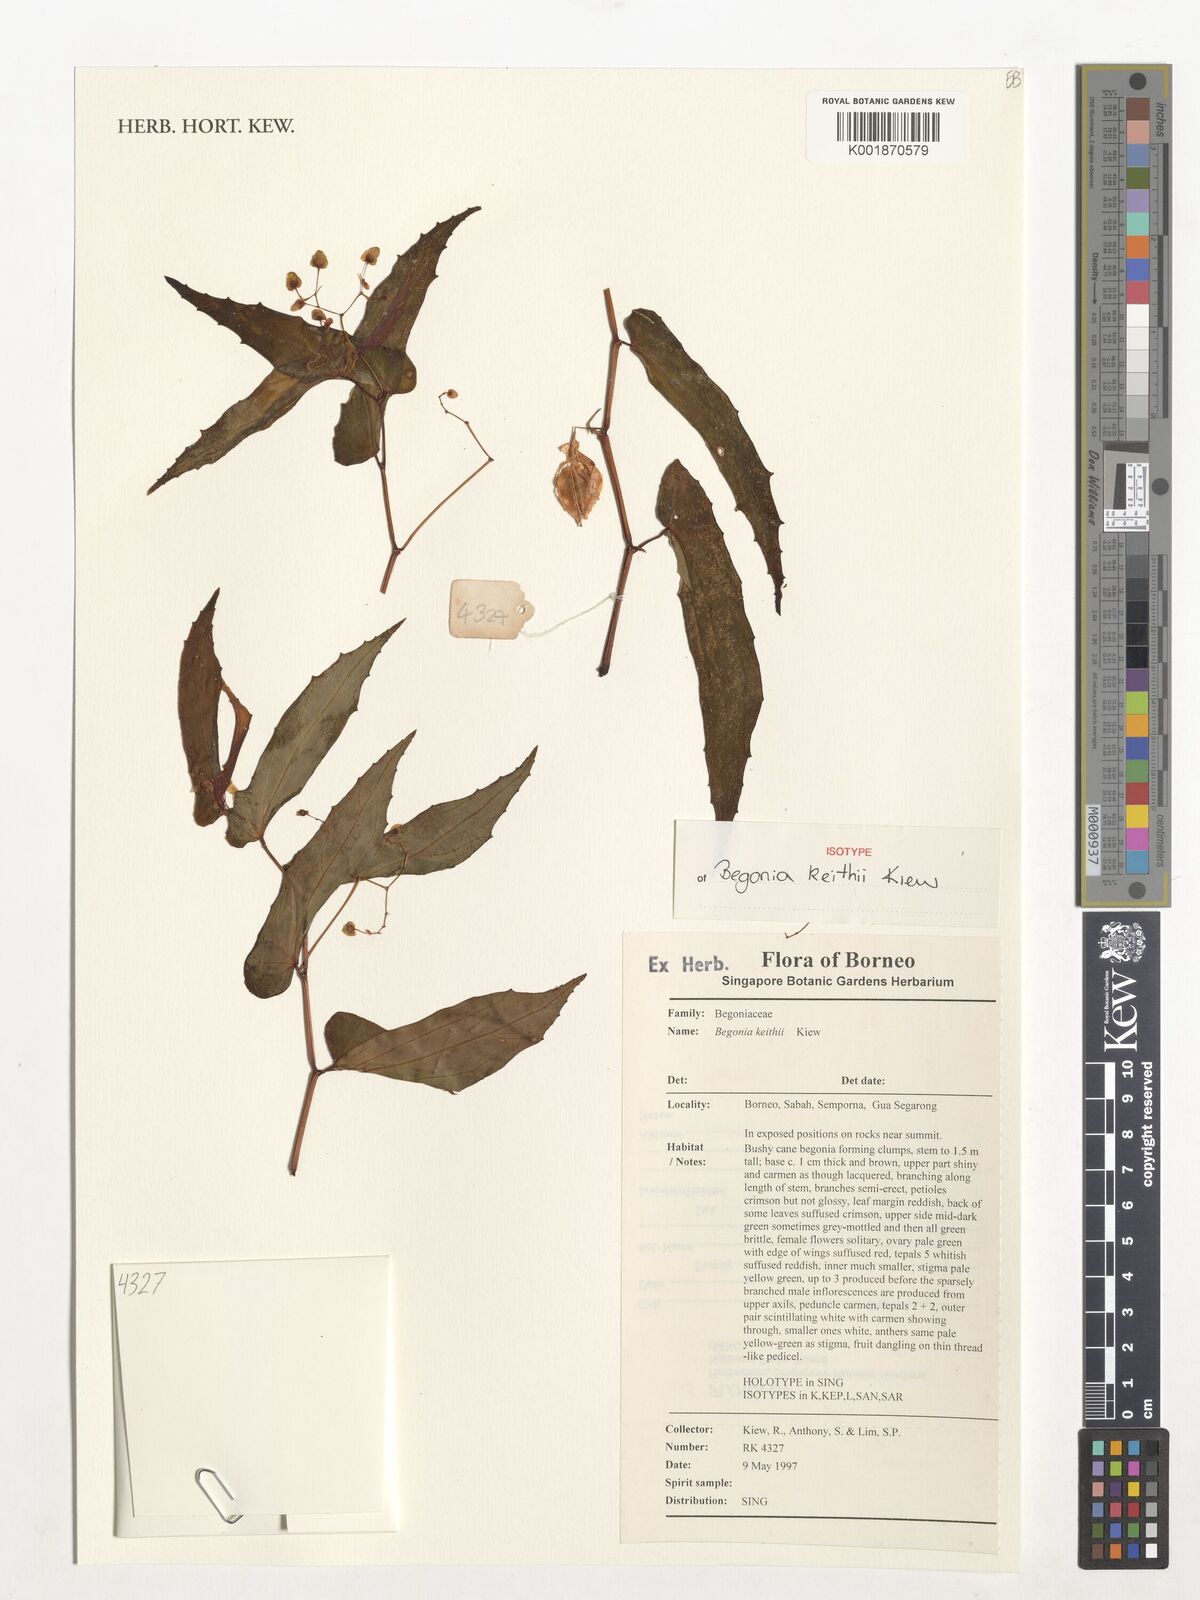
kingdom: Plantae
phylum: Tracheophyta
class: Magnoliopsida
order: Cucurbitales
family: Begoniaceae
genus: Begonia
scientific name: Begonia keithii
